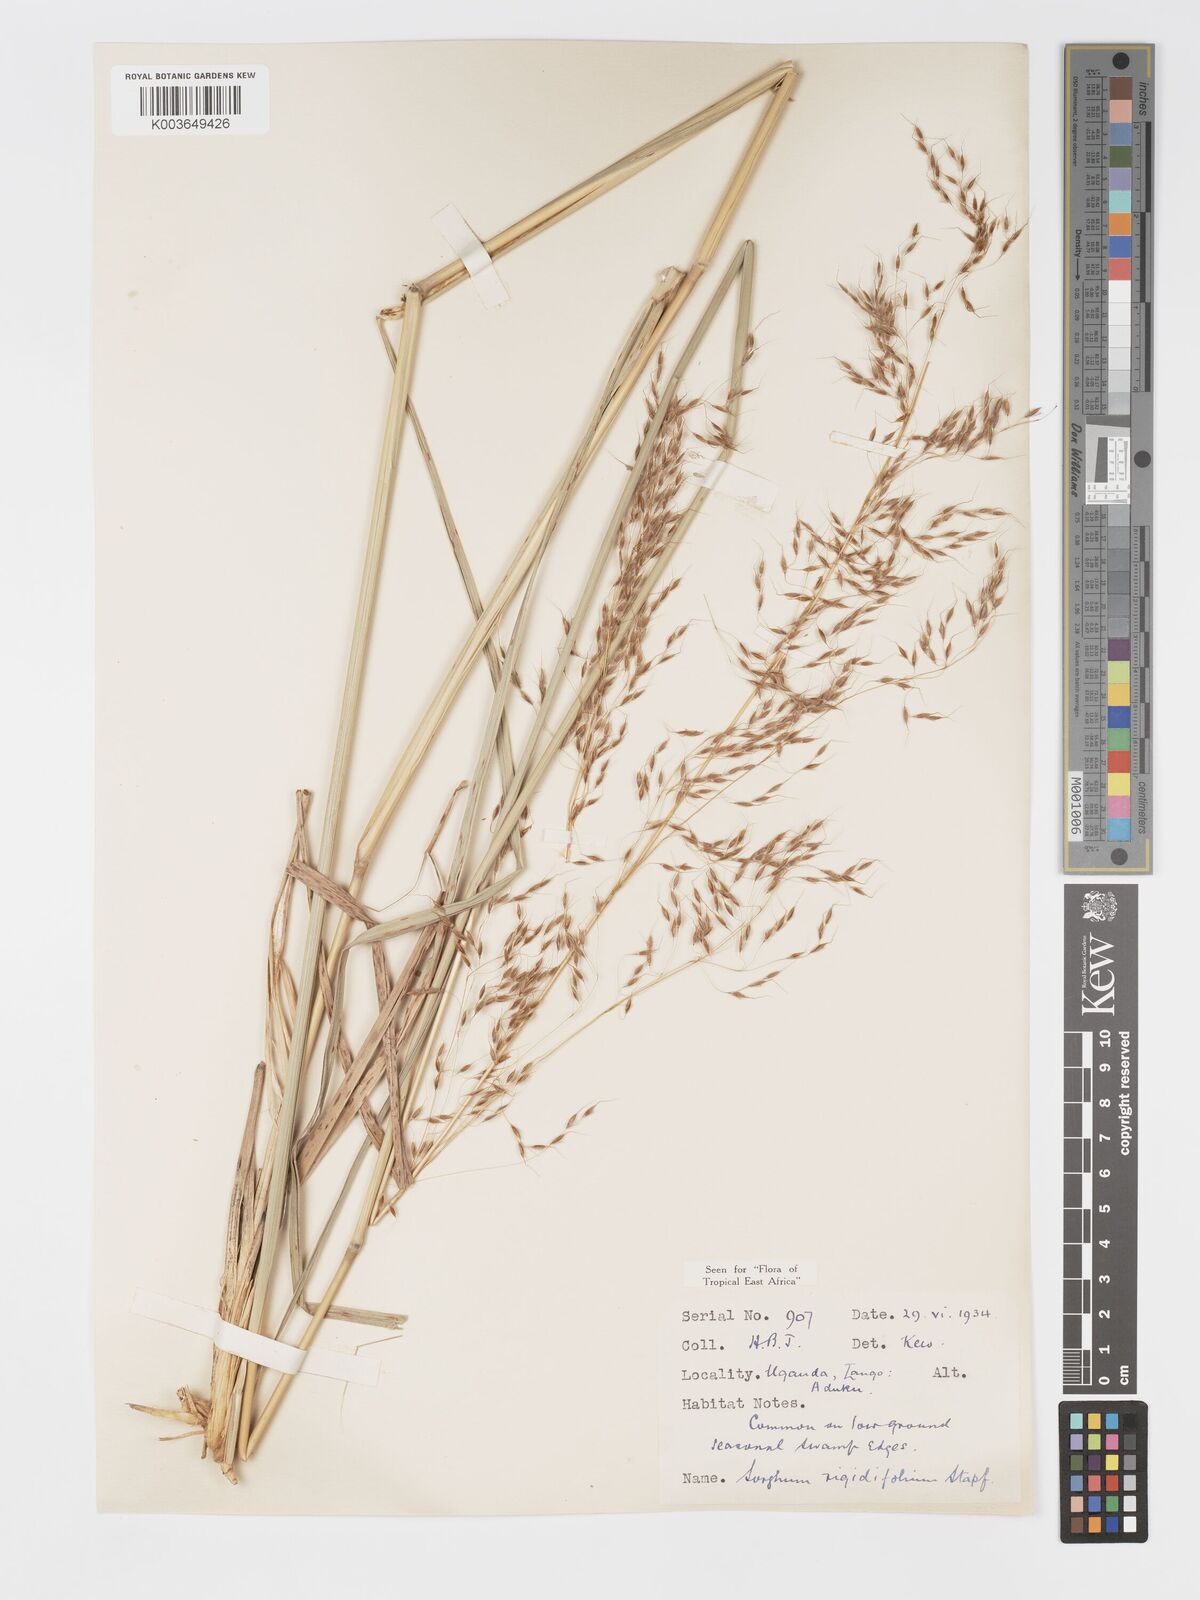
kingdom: Plantae
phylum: Tracheophyta
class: Liliopsida
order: Poales
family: Poaceae
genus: Sorghastrum
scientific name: Sorghastrum stipoides
